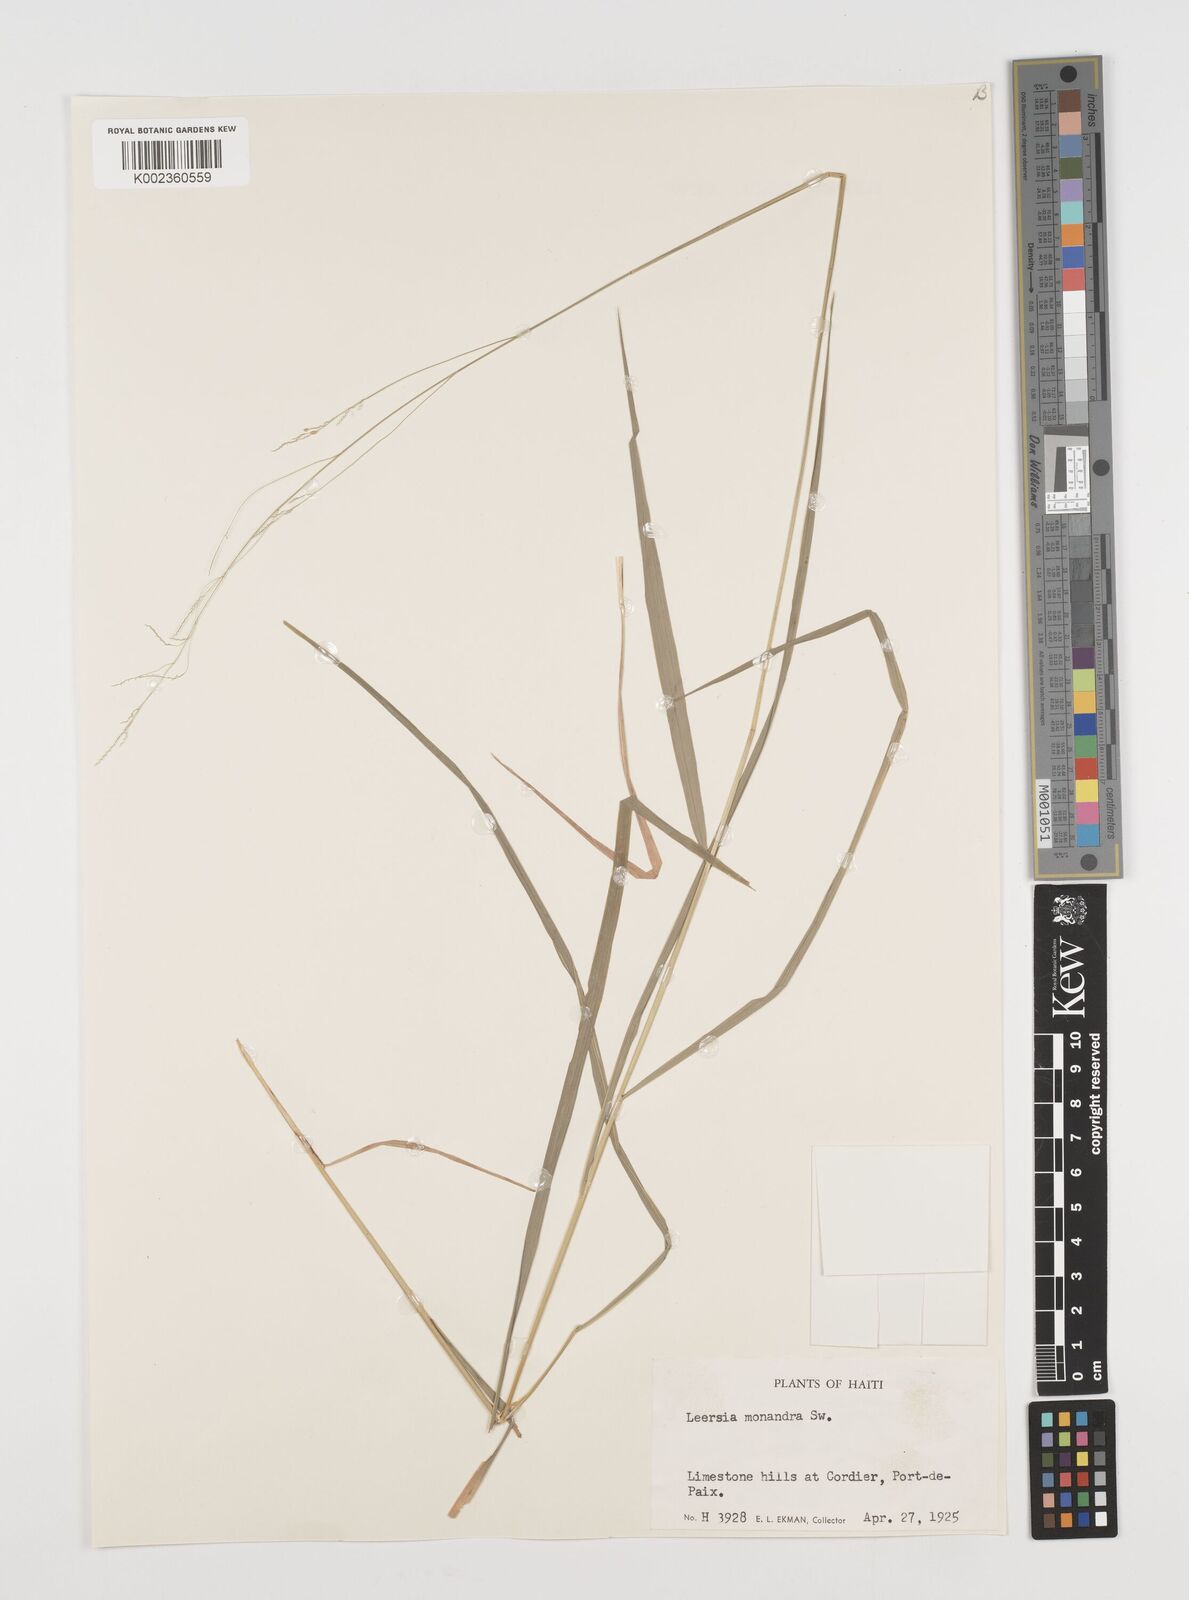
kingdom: Plantae
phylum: Tracheophyta
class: Liliopsida
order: Poales
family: Poaceae
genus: Leersia
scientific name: Leersia monandra
